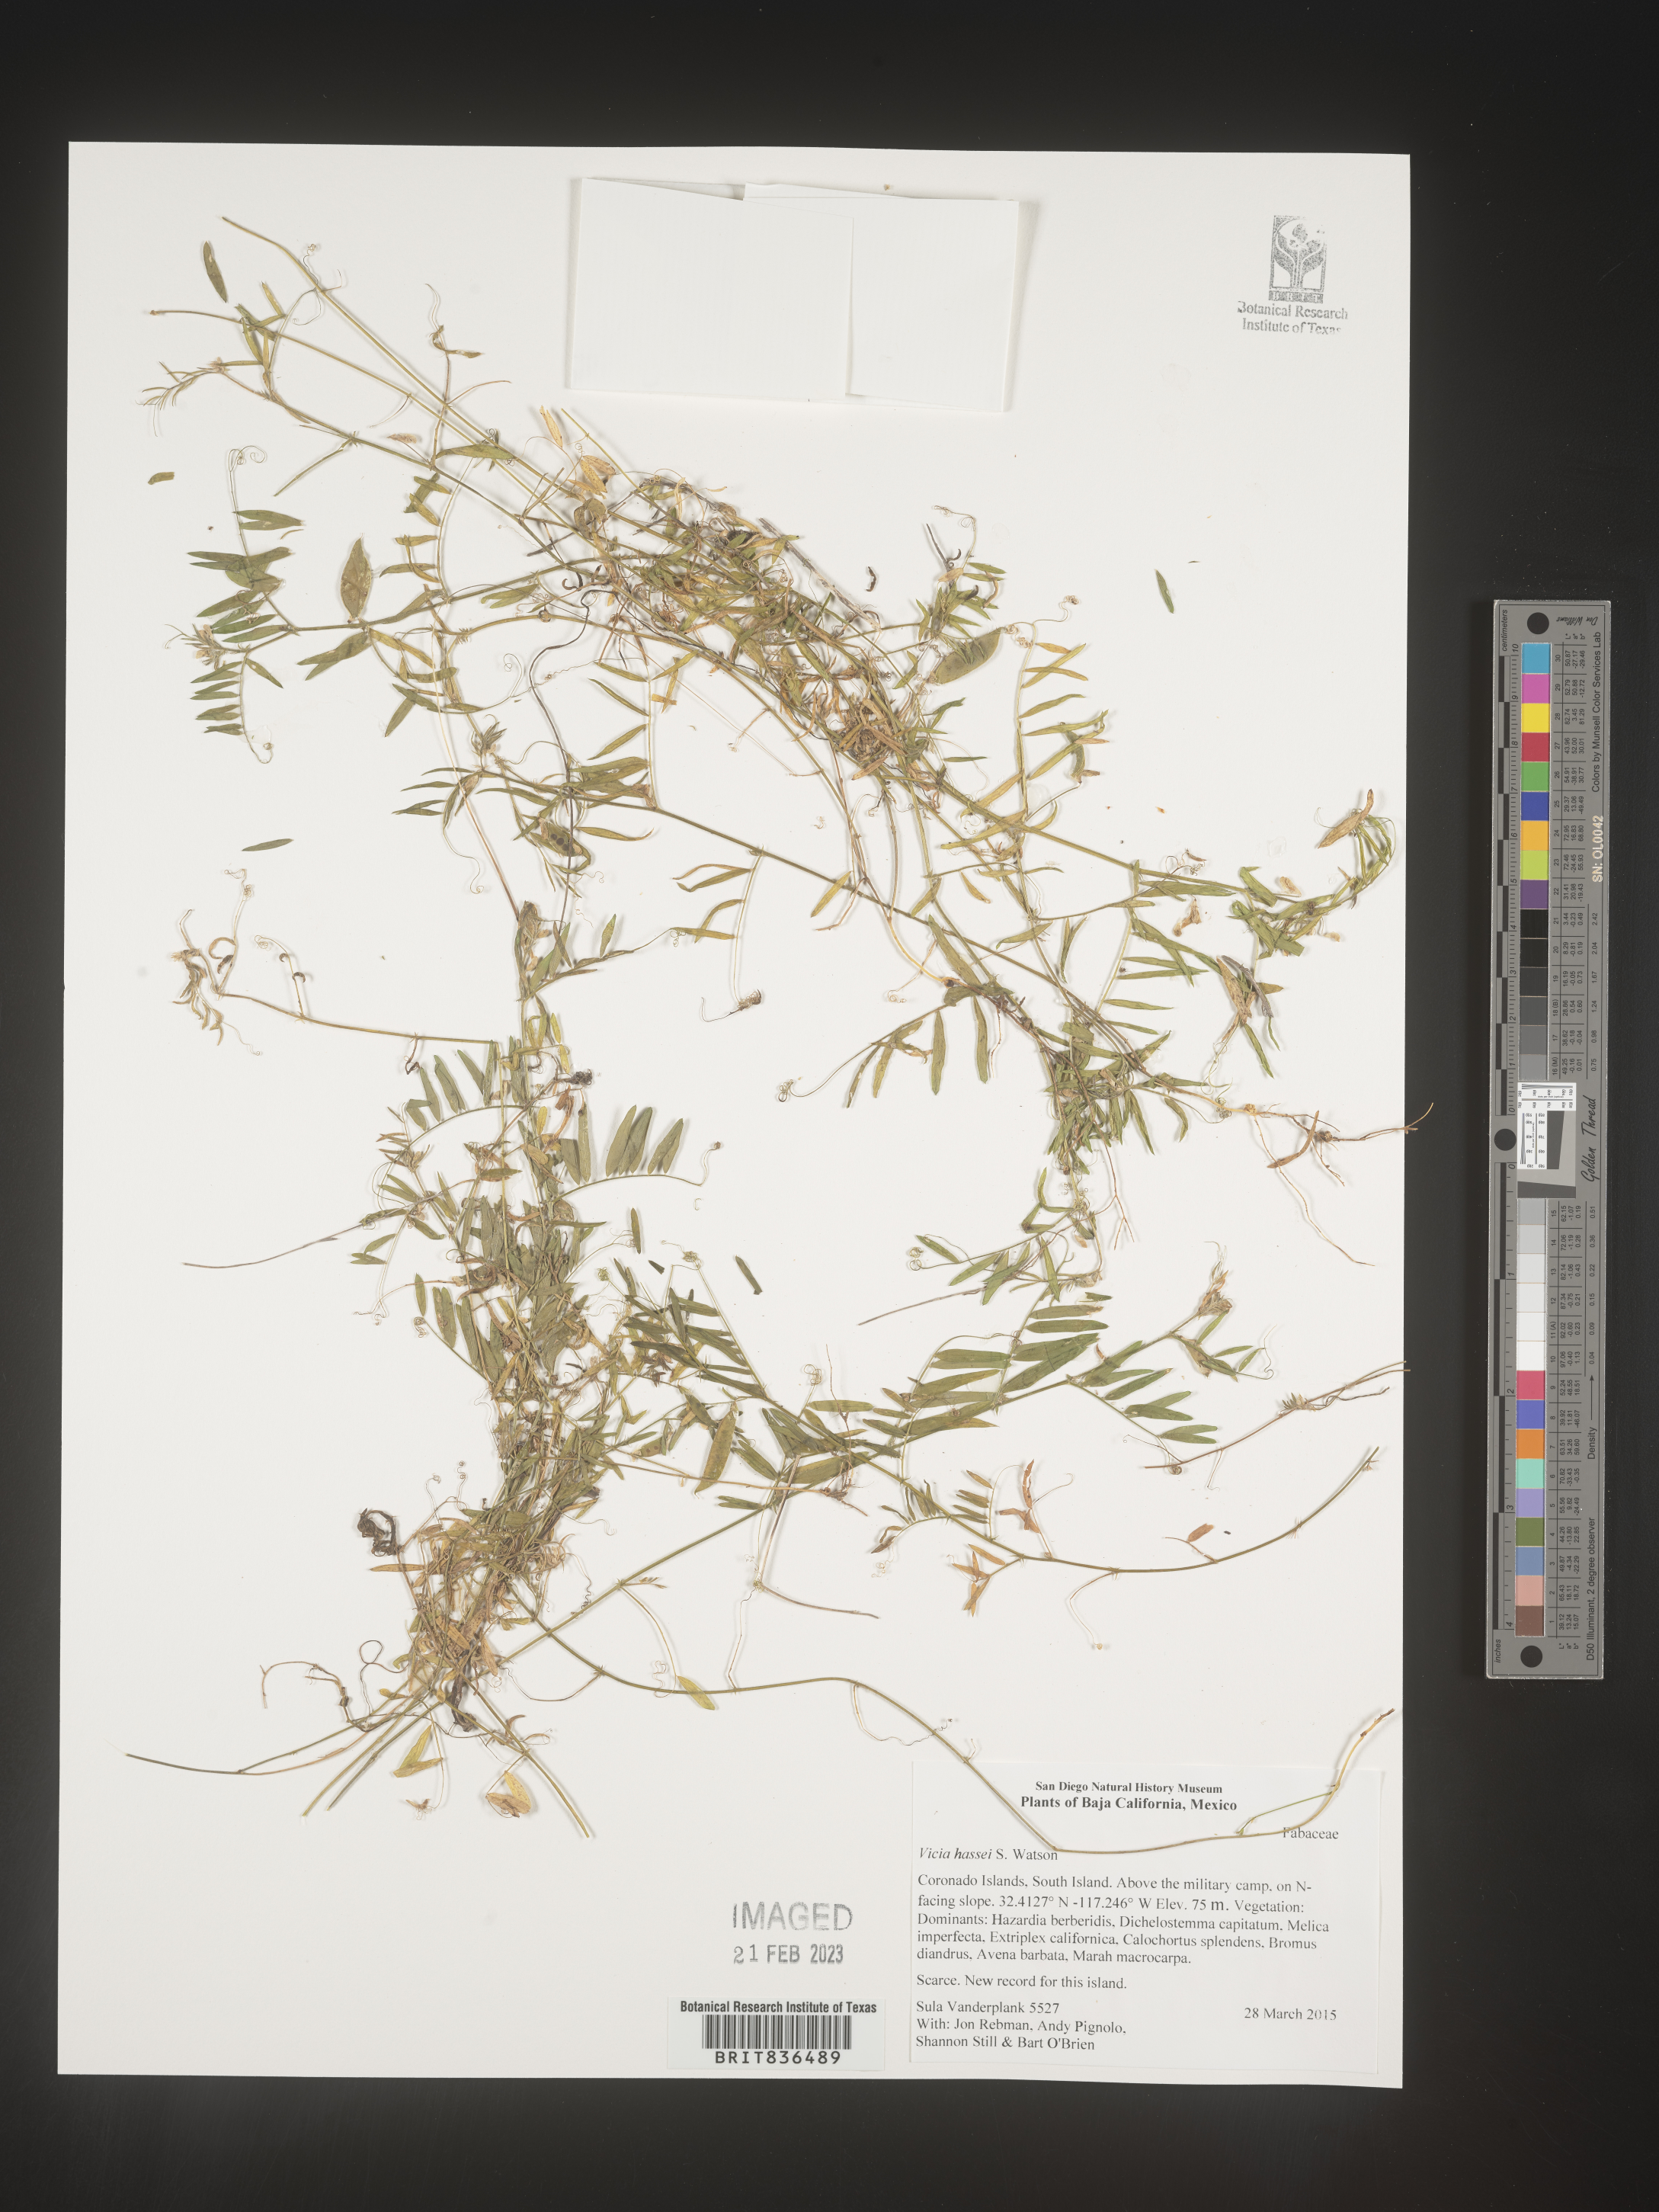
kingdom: Plantae
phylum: Tracheophyta
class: Magnoliopsida
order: Fabales
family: Fabaceae
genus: Vicia
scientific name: Vicia
